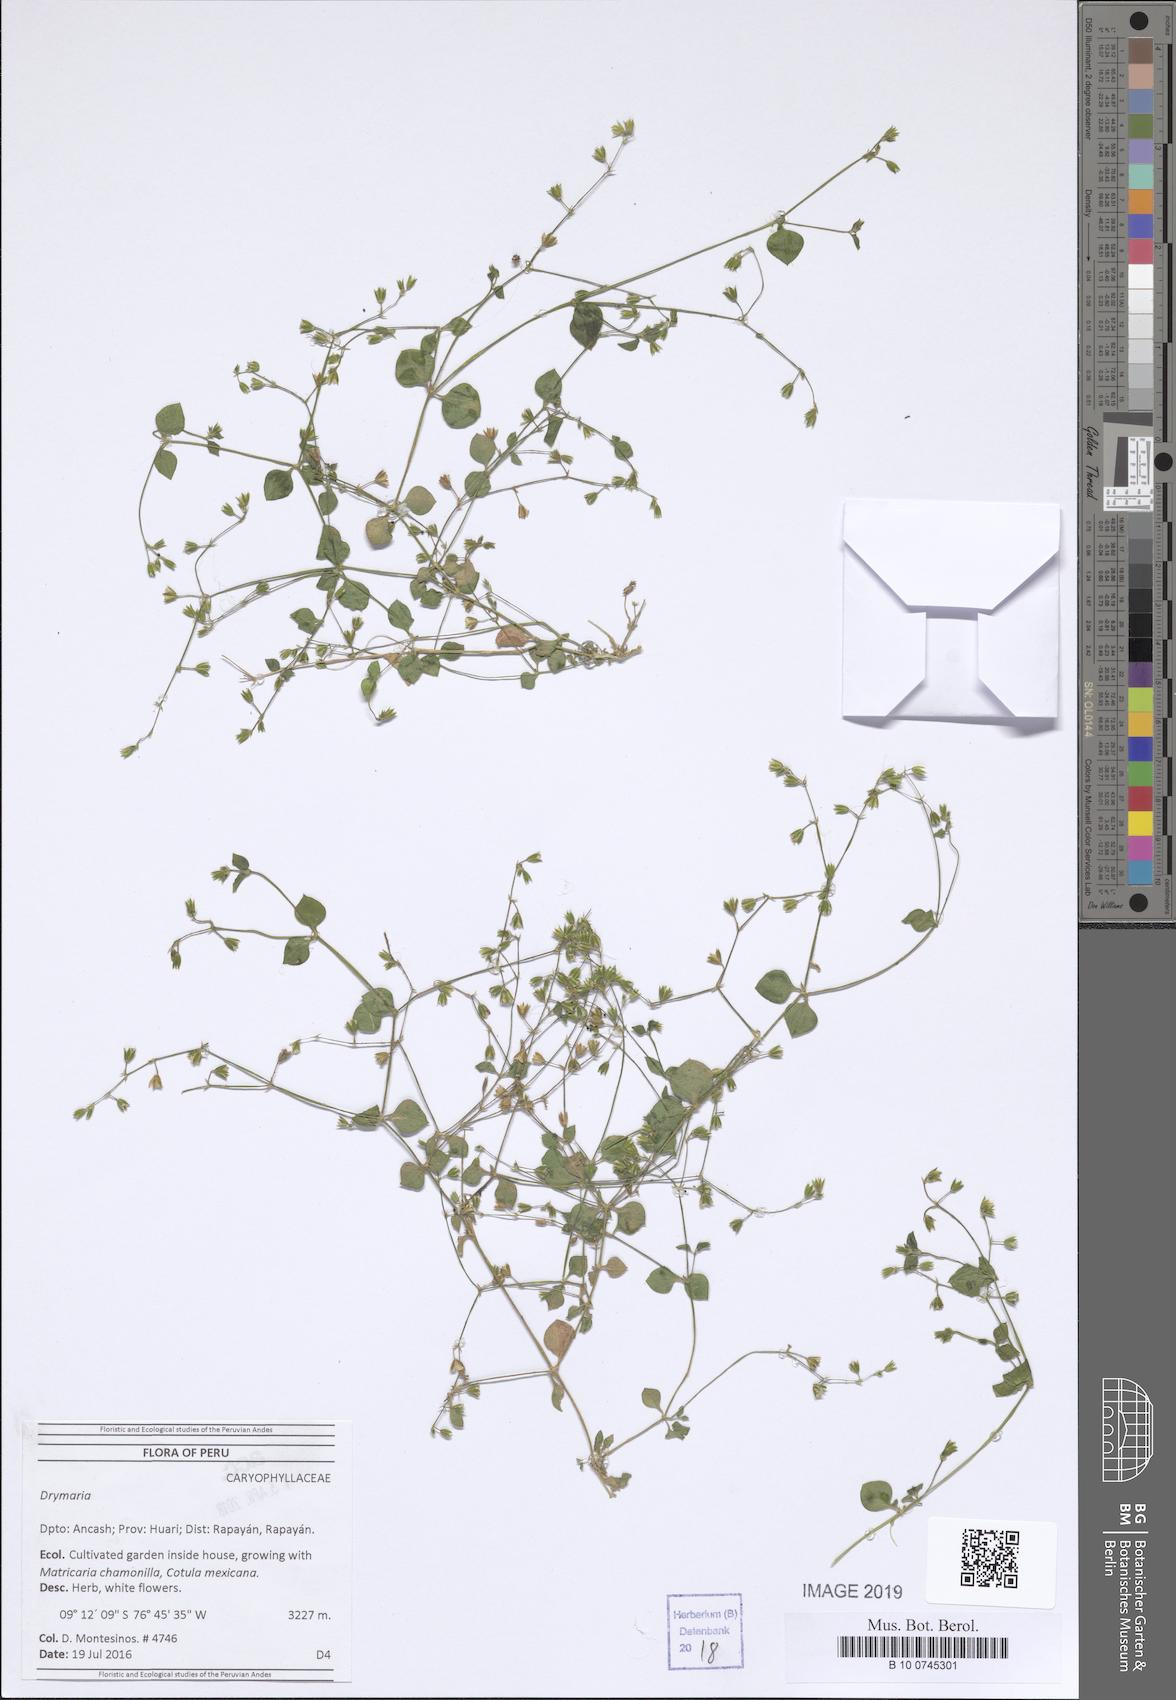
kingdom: Plantae
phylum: Tracheophyta
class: Magnoliopsida
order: Caryophyllales
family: Caryophyllaceae
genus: Drymaria
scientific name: Drymaria
